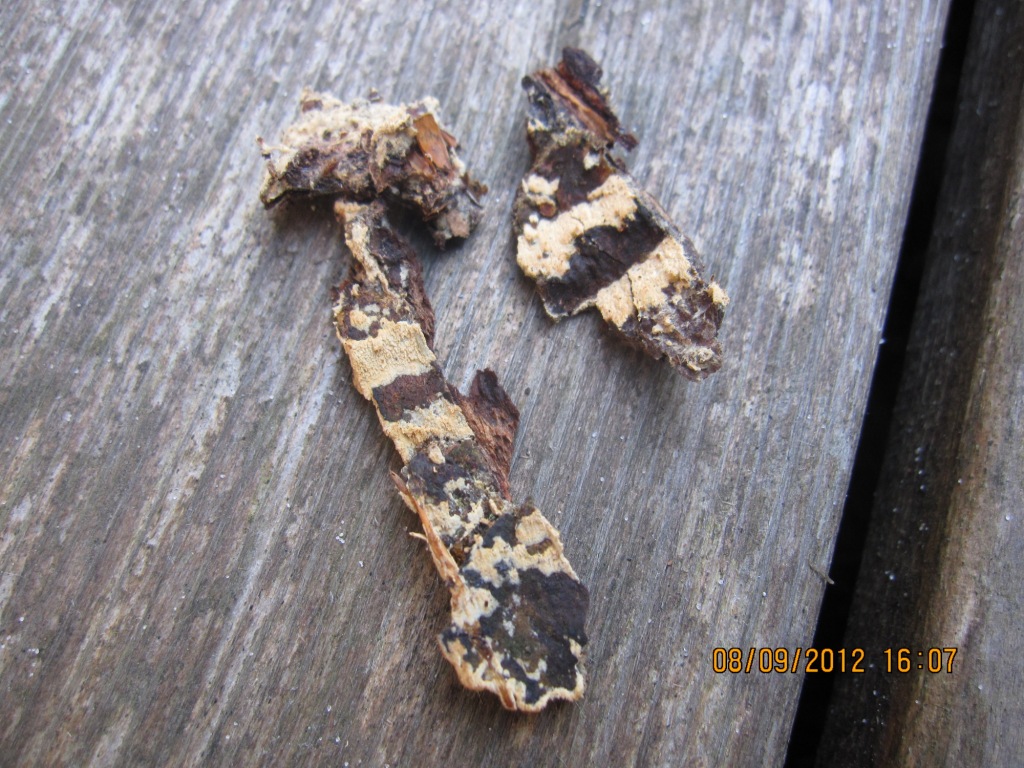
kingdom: Fungi
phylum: Basidiomycota
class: Agaricomycetes
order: Hymenochaetales
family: Hyphodontiaceae
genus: Hyphodontia
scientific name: Hyphodontia abieticola
